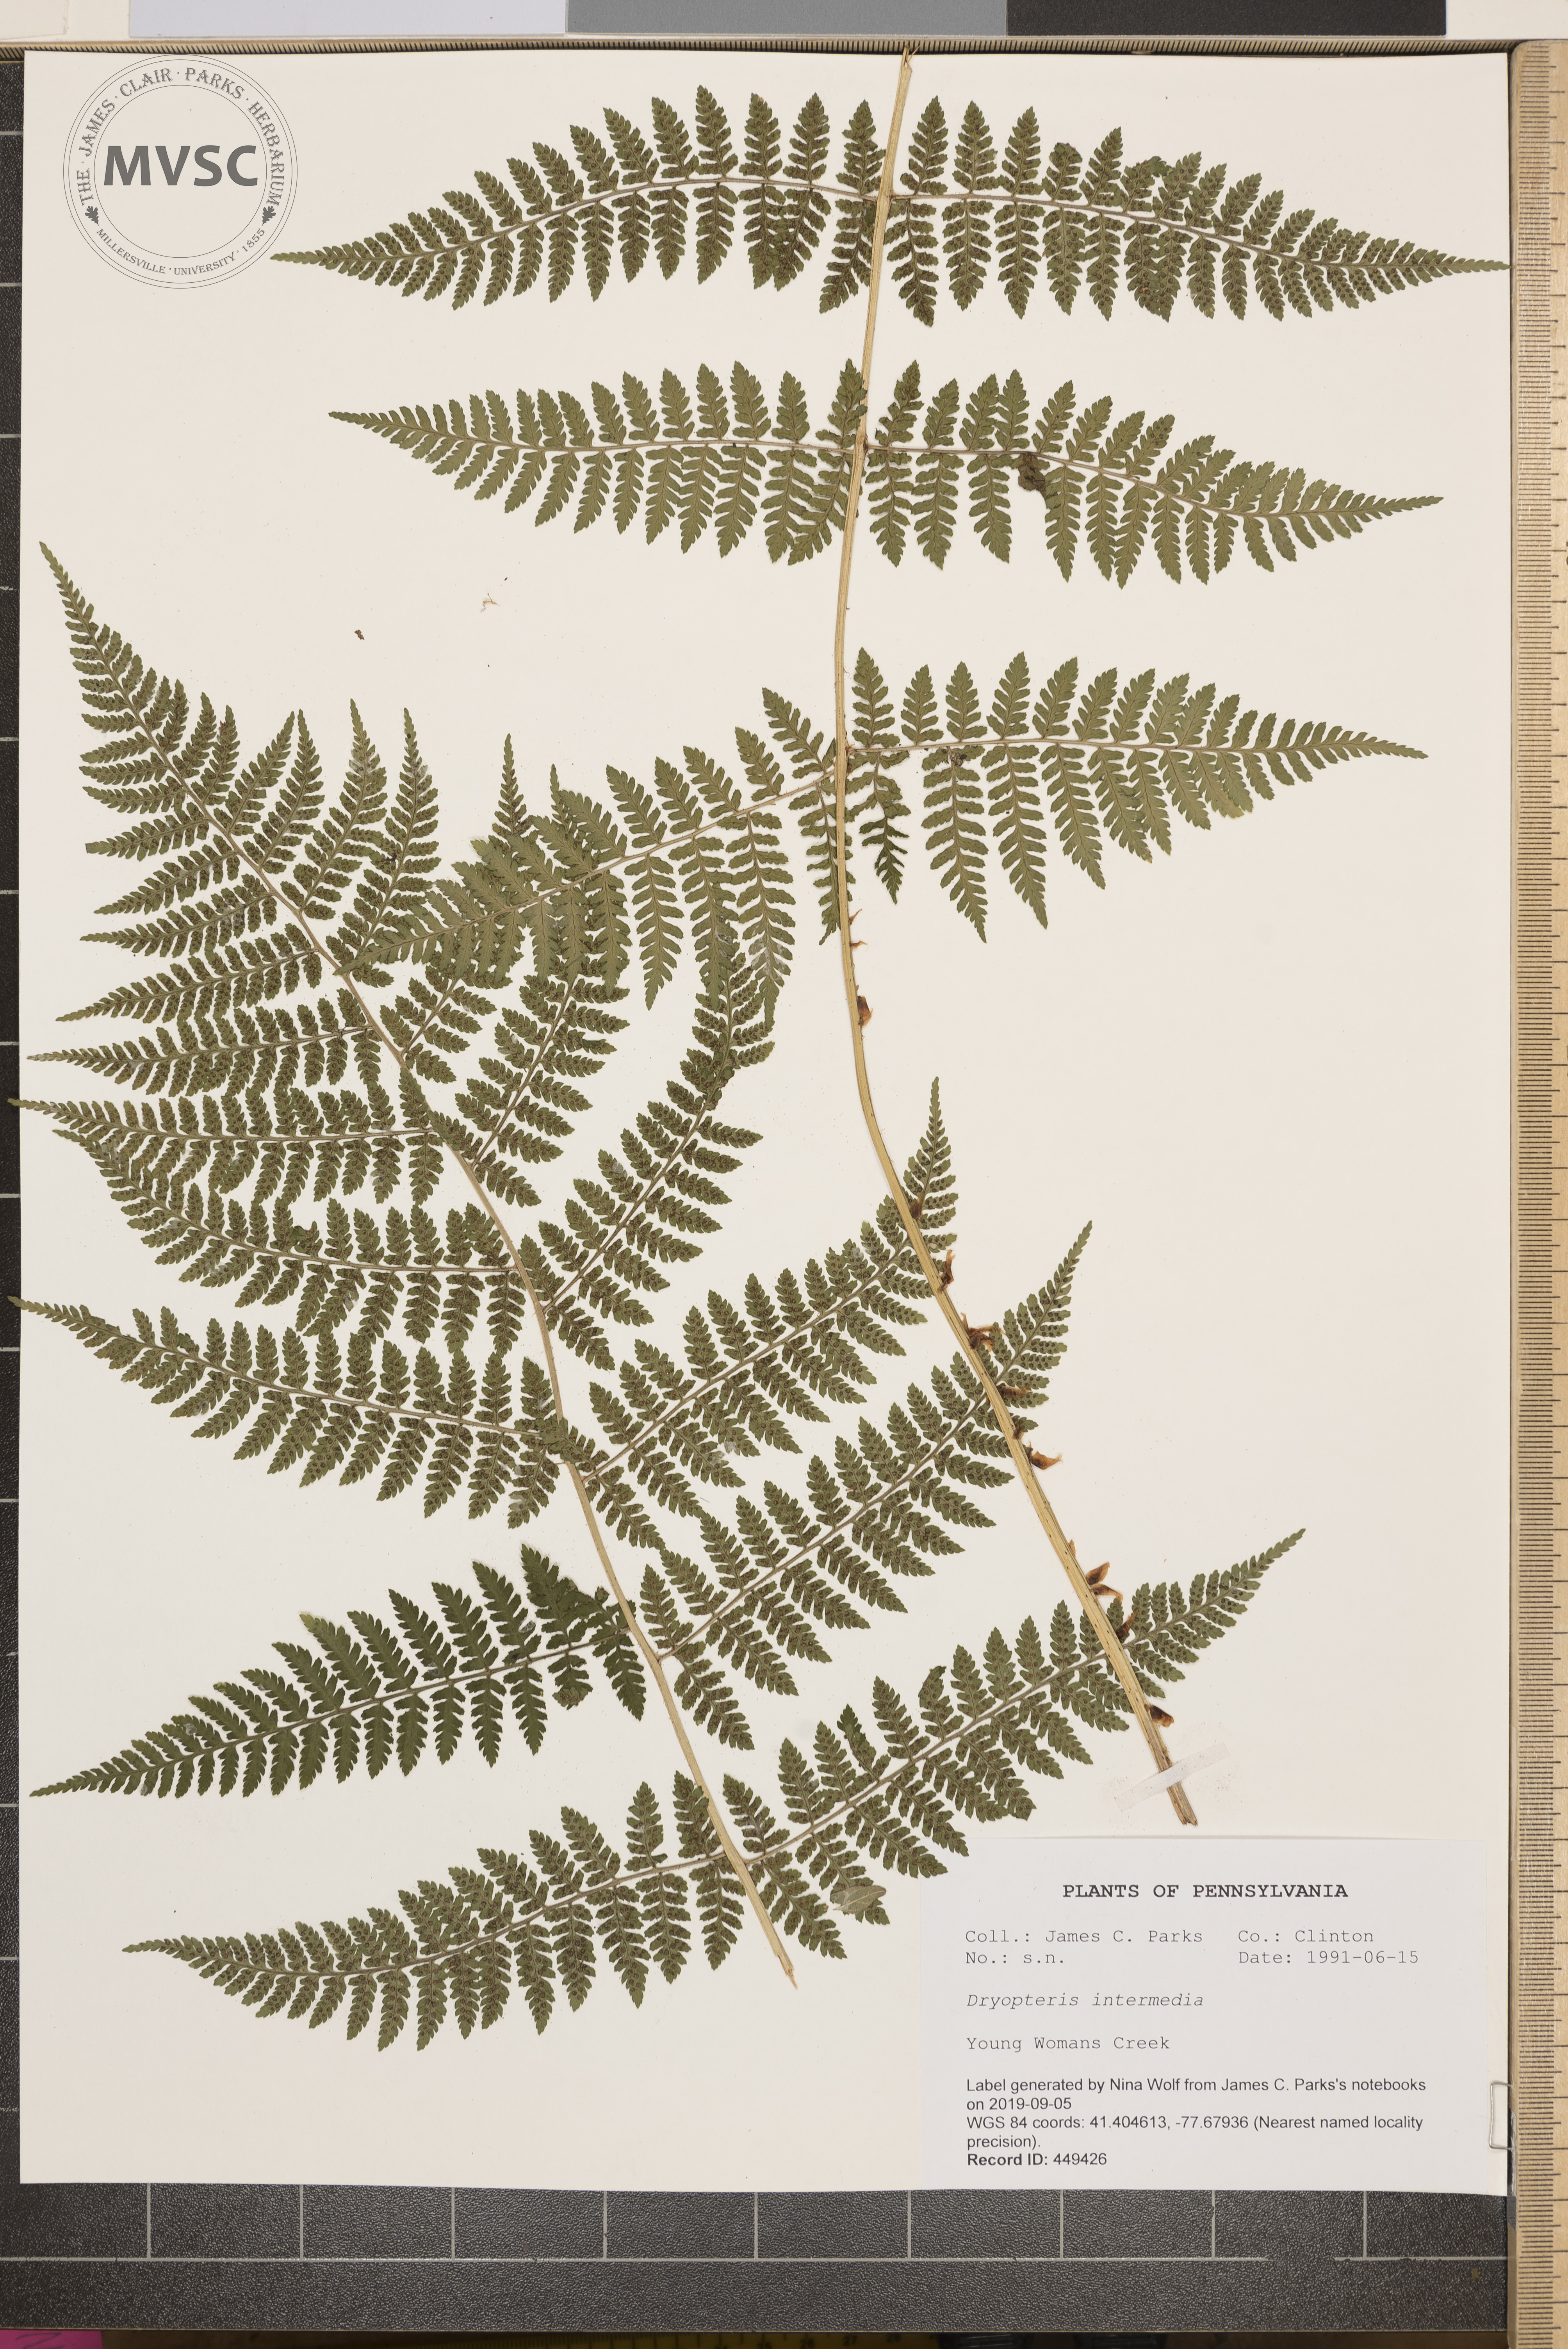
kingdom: Plantae
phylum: Tracheophyta
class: Polypodiopsida
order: Polypodiales
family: Dryopteridaceae
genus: Dryopteris
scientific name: Dryopteris intermedia
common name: Evergreen wood fern
